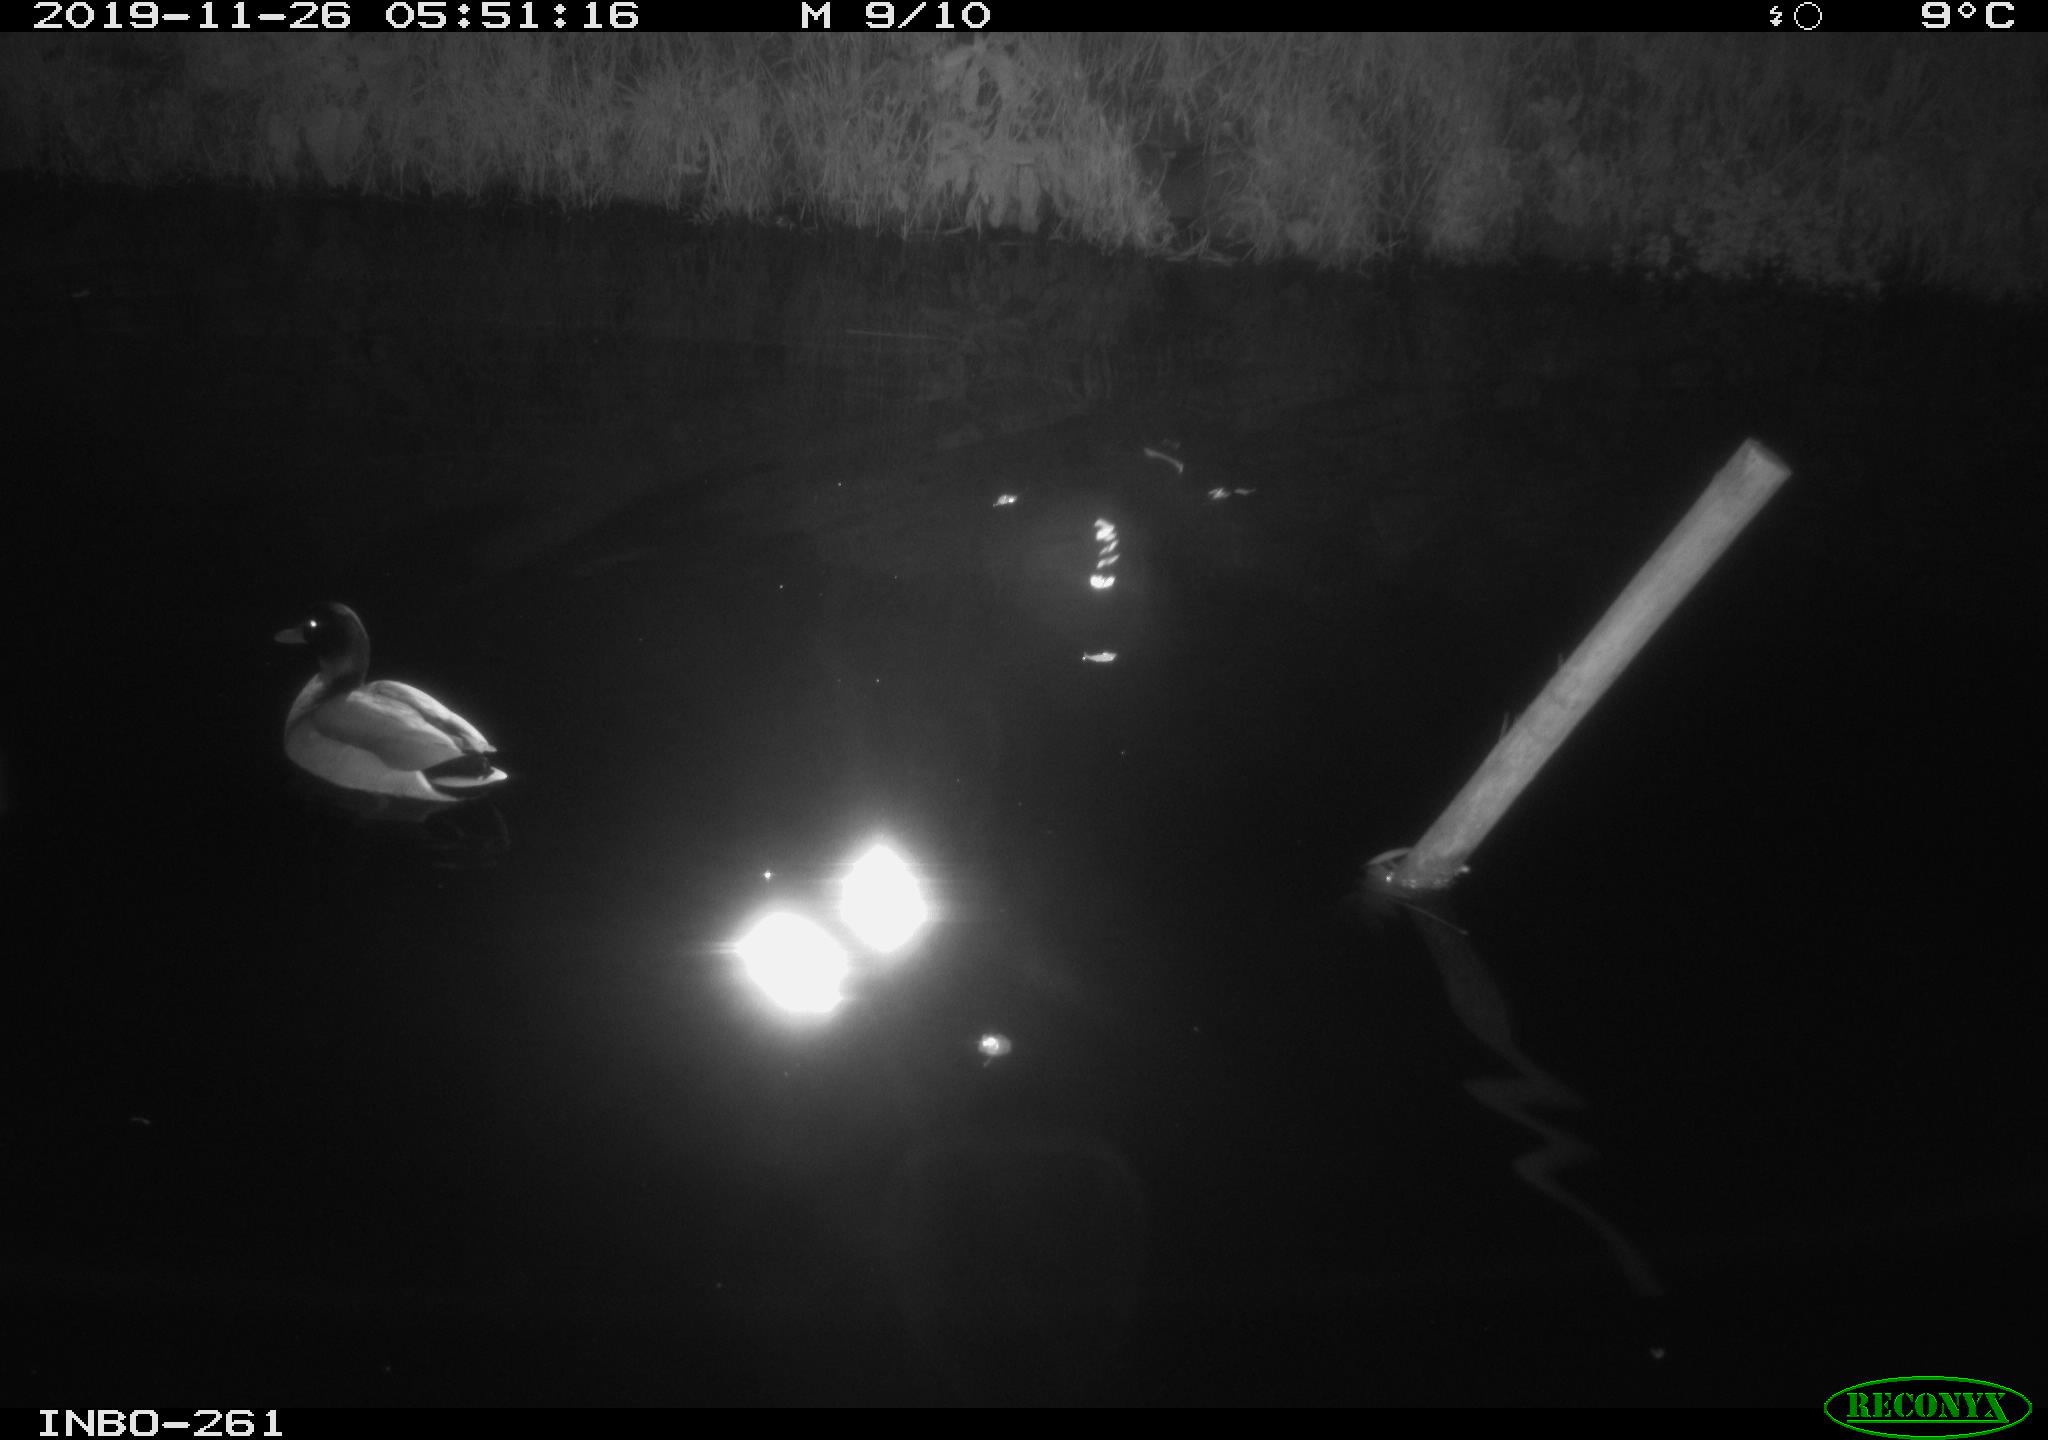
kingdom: Animalia
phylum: Chordata
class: Aves
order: Anseriformes
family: Anatidae
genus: Anas
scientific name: Anas platyrhynchos
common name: Mallard
